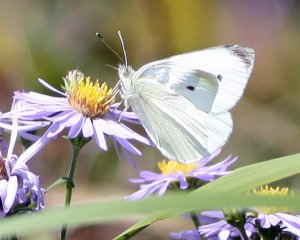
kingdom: Animalia
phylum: Arthropoda
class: Insecta
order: Lepidoptera
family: Pieridae
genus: Pieris
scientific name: Pieris rapae
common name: Cabbage White
